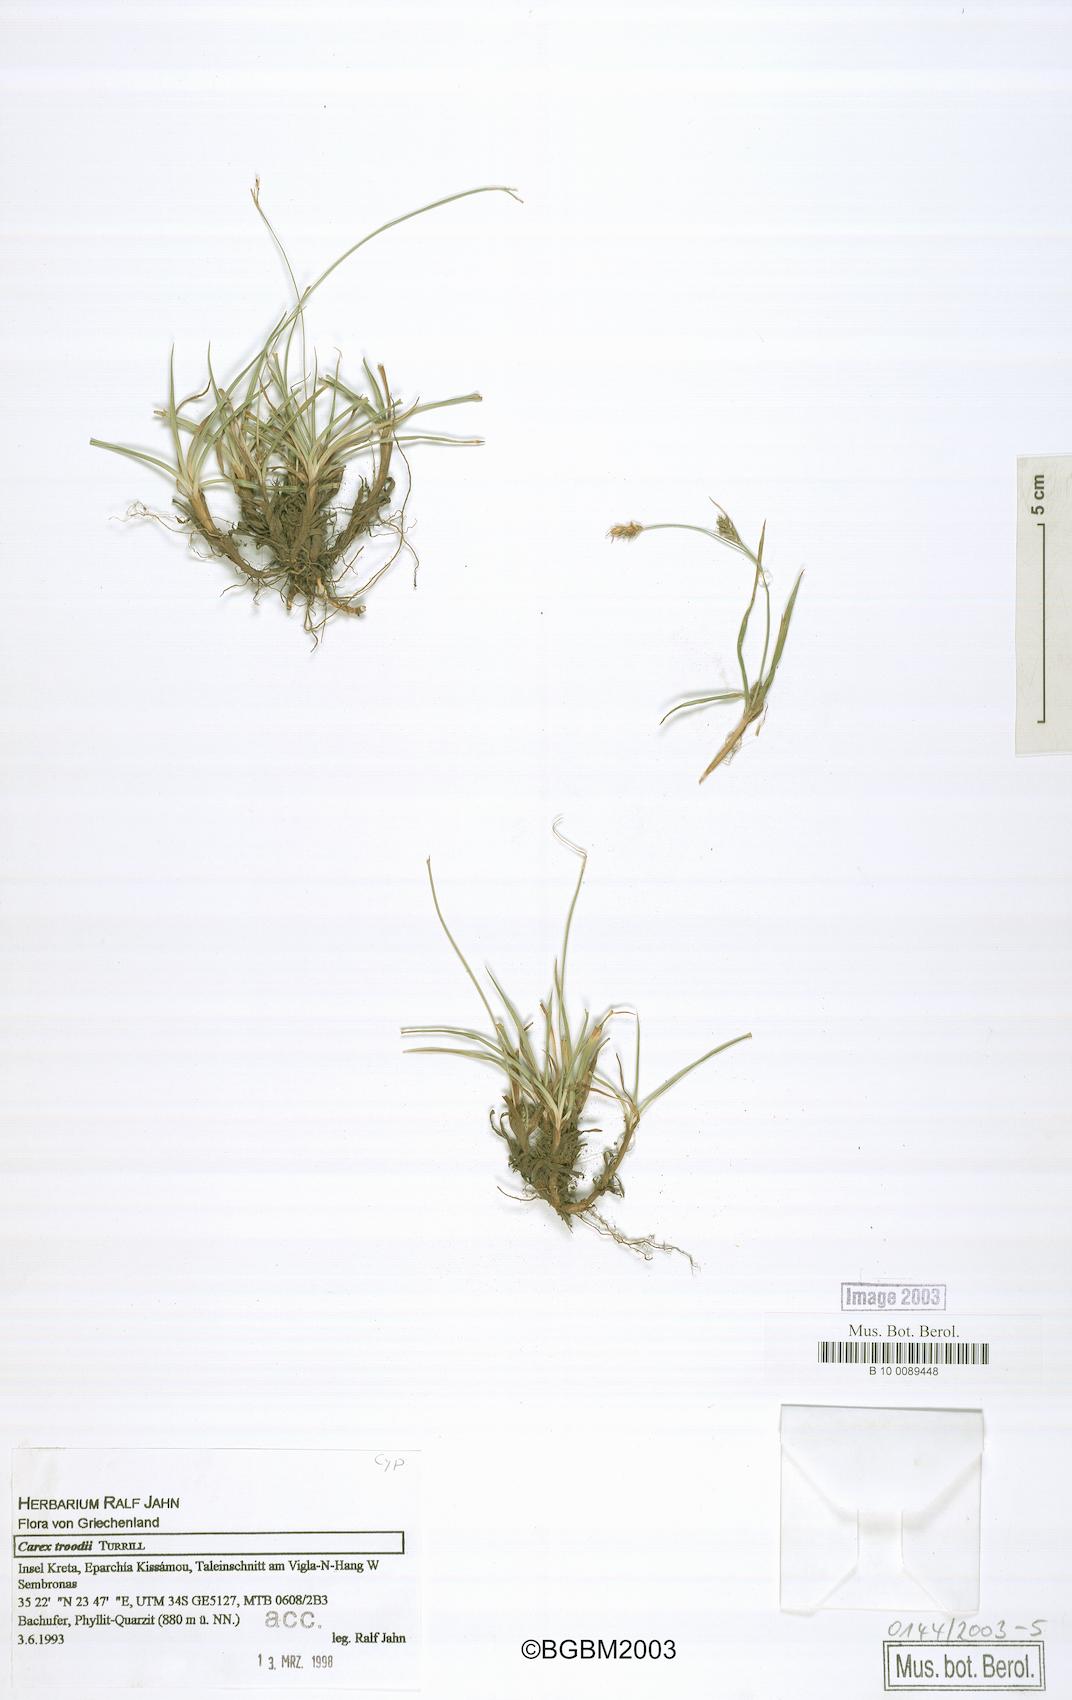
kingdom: Plantae
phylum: Tracheophyta
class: Liliopsida
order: Poales
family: Cyperaceae
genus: Carex
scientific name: Carex cretica
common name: Crete sedge
